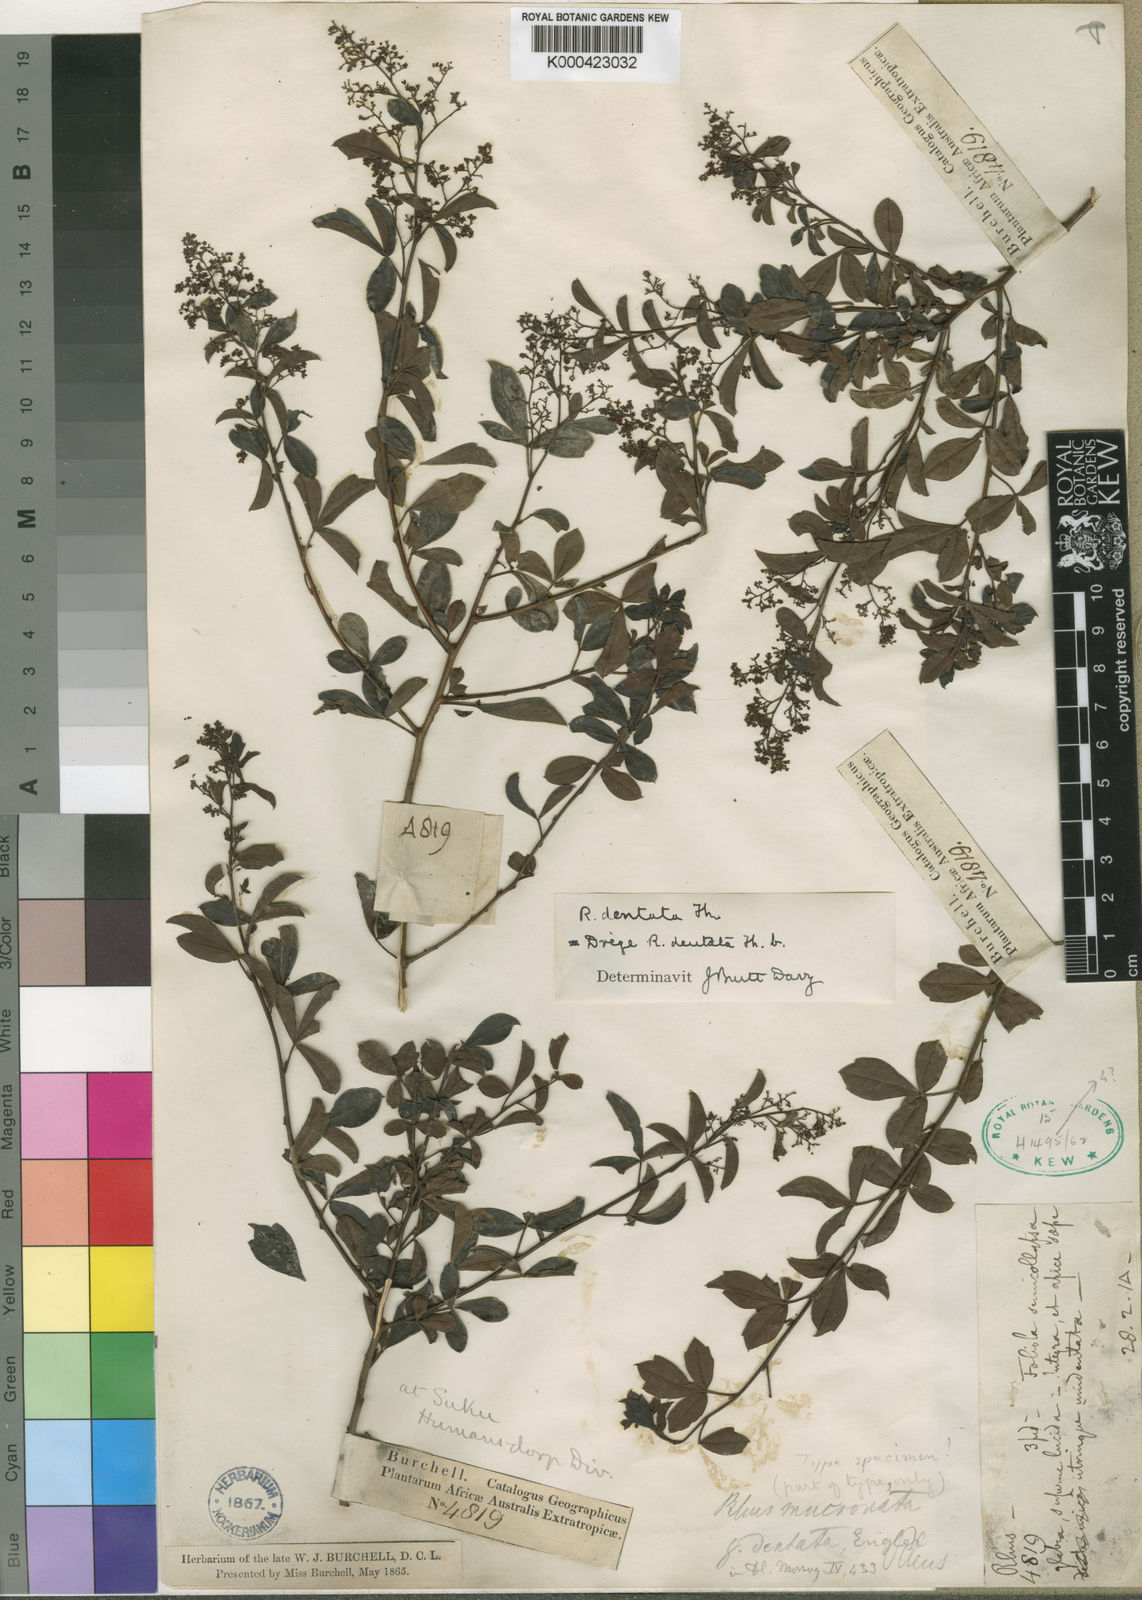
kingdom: Plantae
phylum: Tracheophyta
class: Magnoliopsida
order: Sapindales
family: Anacardiaceae
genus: Searsia
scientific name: Searsia dentata
